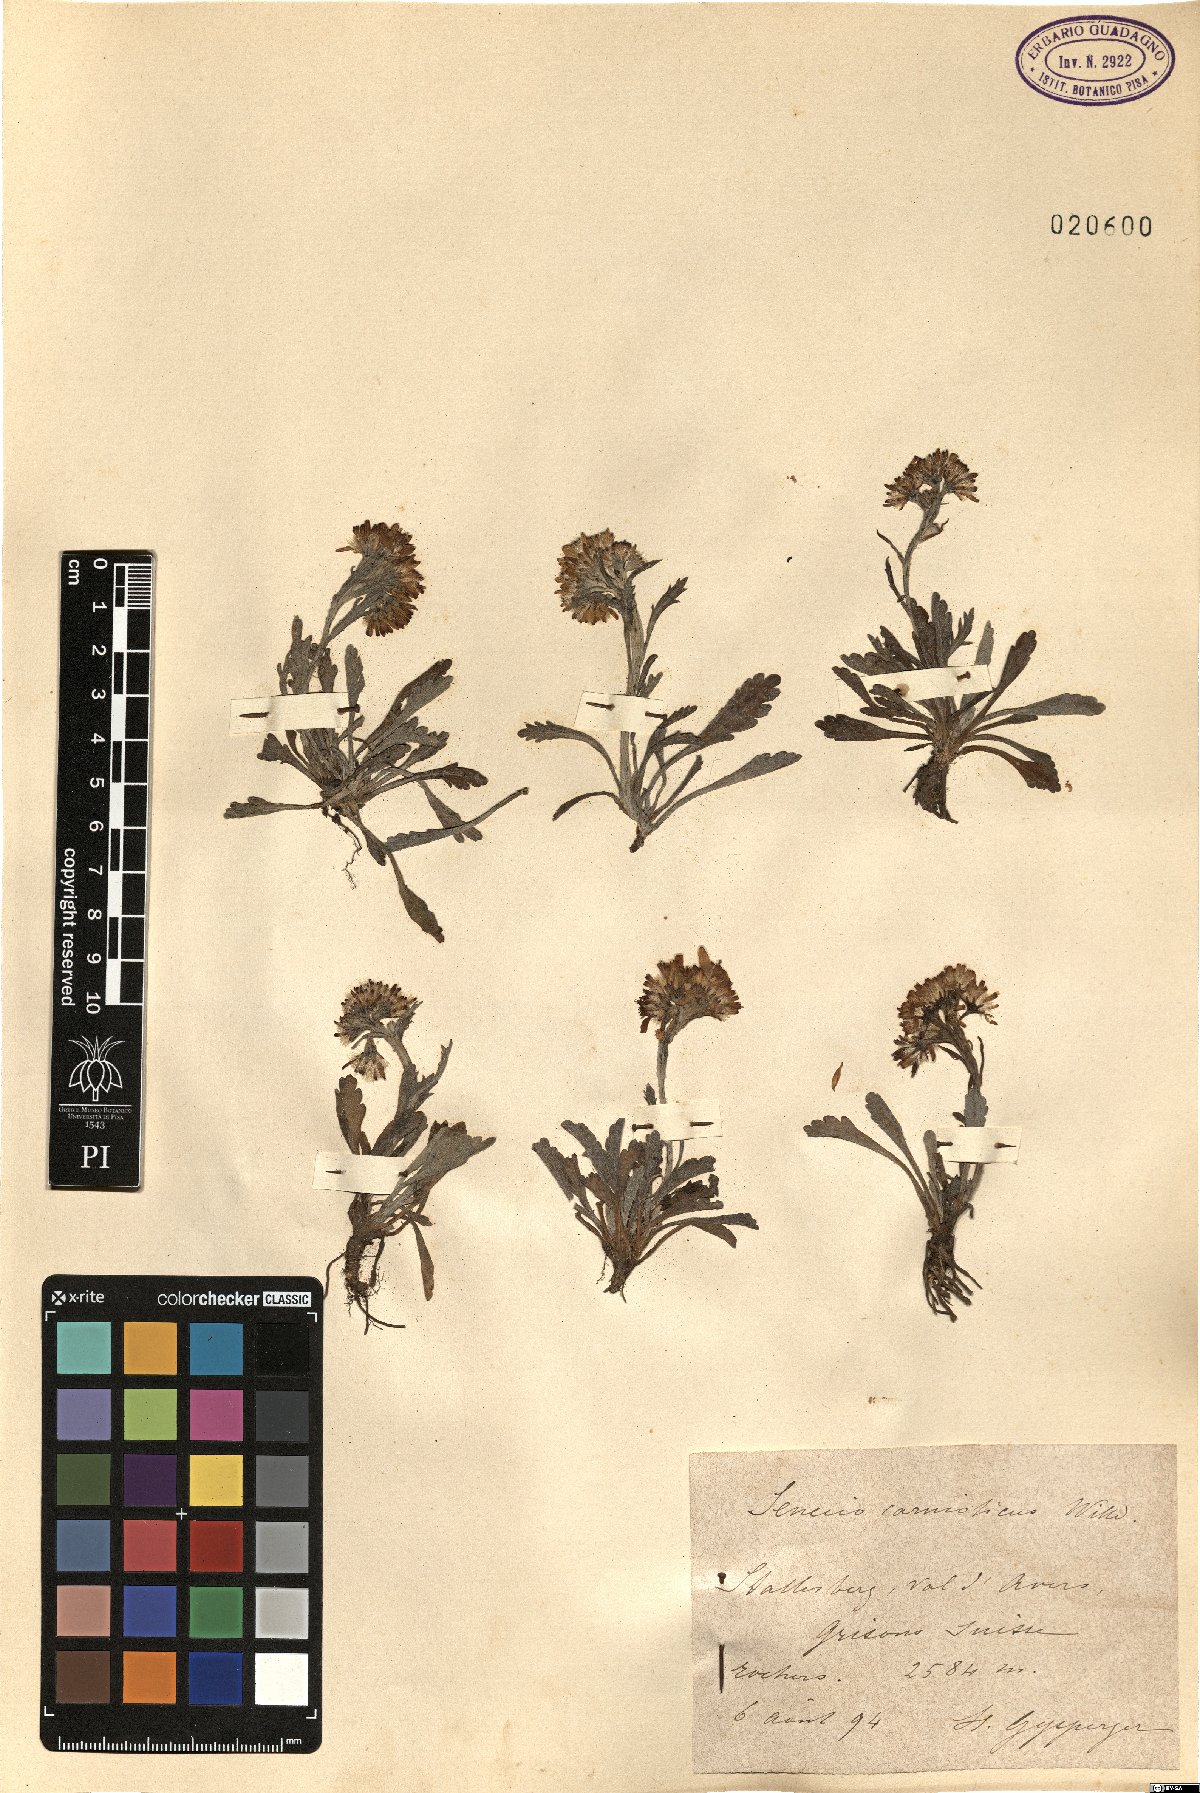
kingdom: Plantae
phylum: Tracheophyta
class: Magnoliopsida
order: Asterales
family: Asteraceae
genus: Jacobaea
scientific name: Jacobaea carniolica
